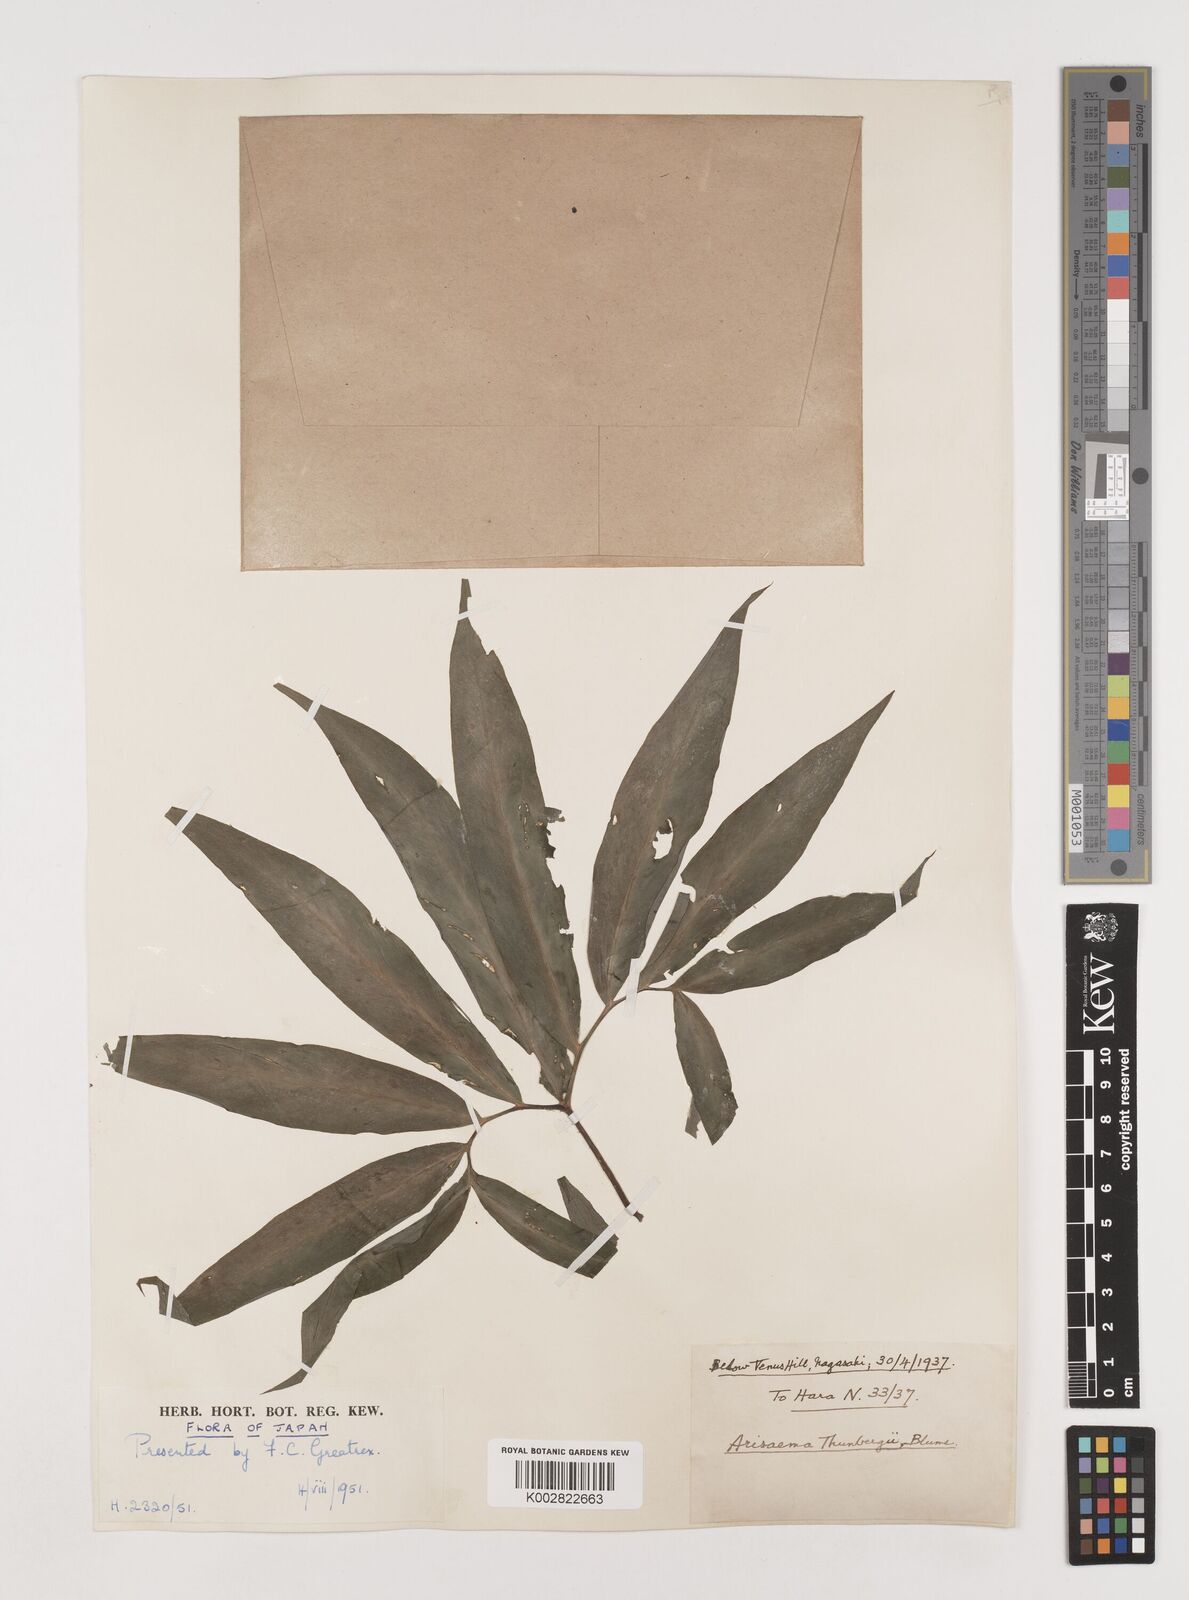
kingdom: Plantae
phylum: Tracheophyta
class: Liliopsida
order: Alismatales
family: Araceae
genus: Arisaema
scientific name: Arisaema thunbergii
